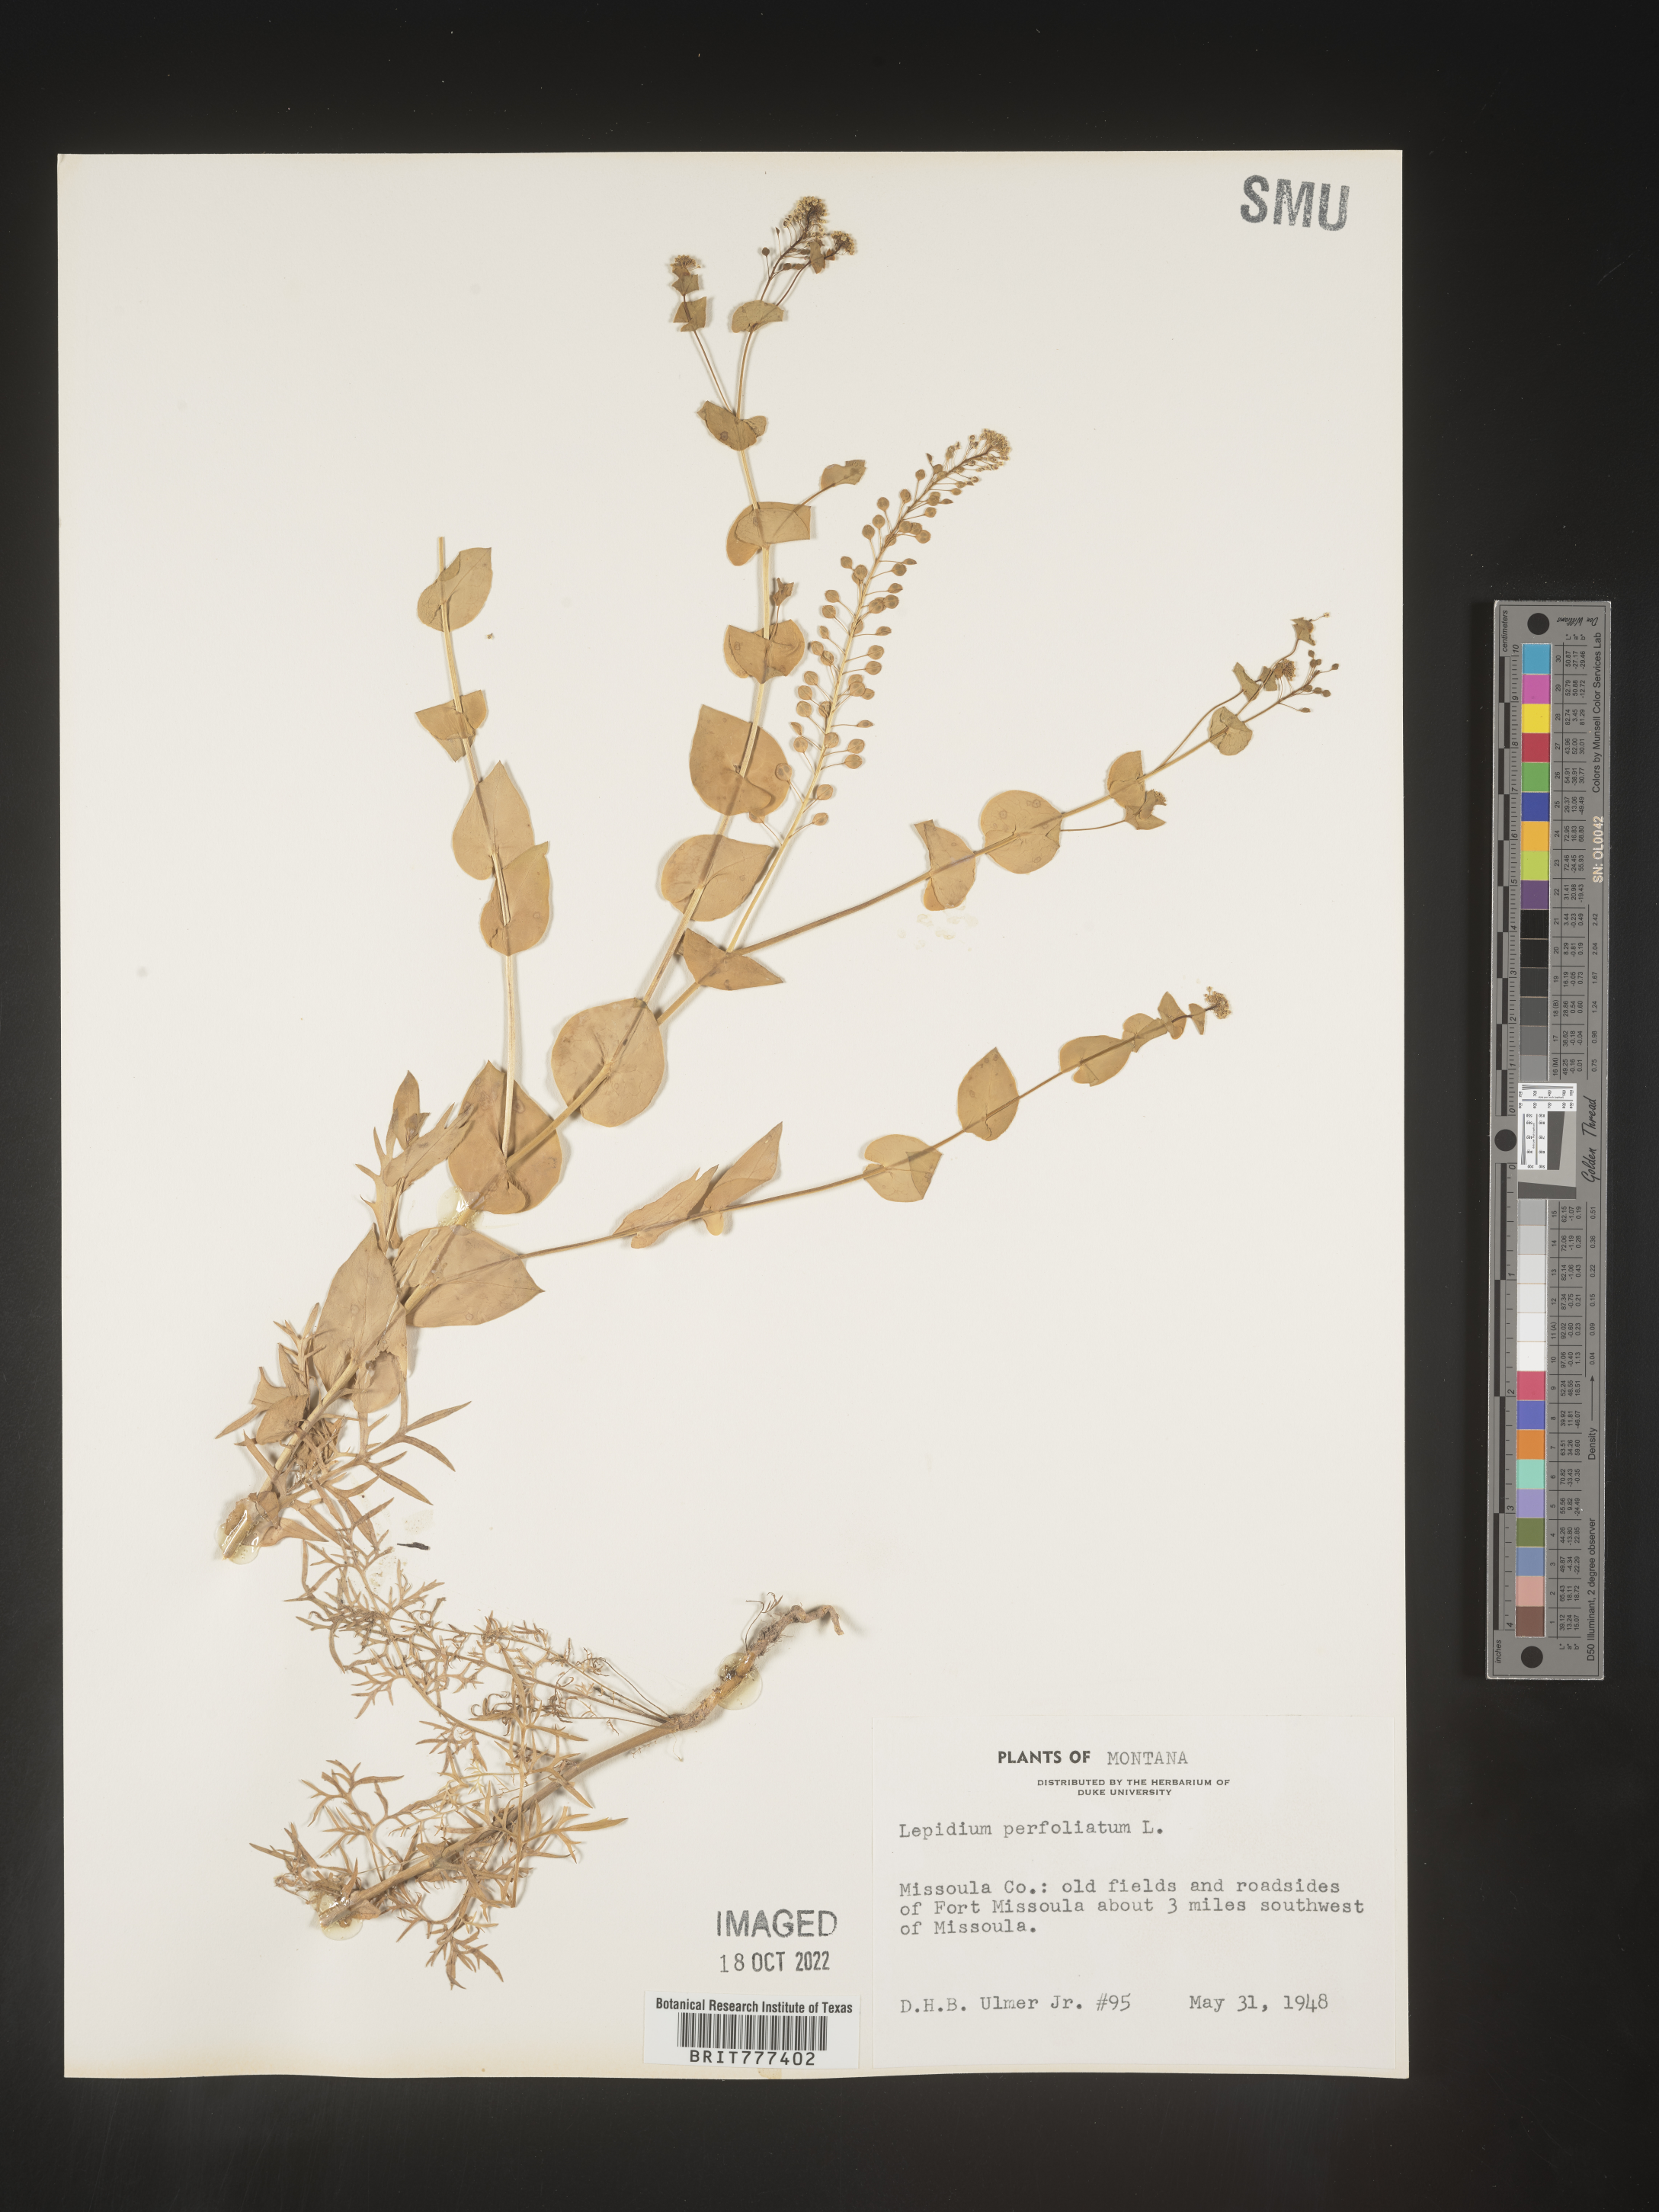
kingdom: Plantae
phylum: Tracheophyta
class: Magnoliopsida
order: Brassicales
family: Brassicaceae
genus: Lepidium
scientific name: Lepidium perfoliatum
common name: Perfoliate pepperwort
